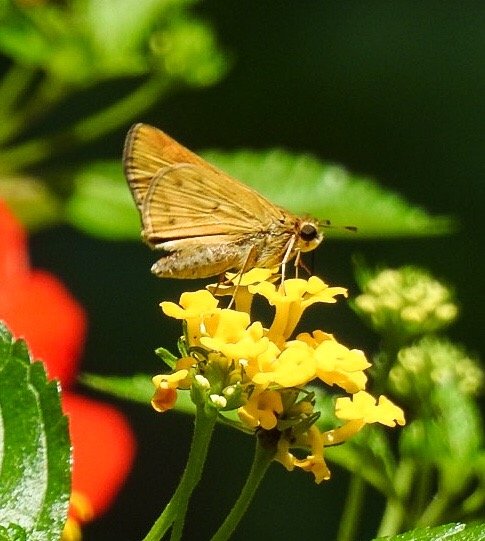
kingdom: Animalia
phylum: Arthropoda
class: Insecta
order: Lepidoptera
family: Hesperiidae
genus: Hylephila
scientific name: Hylephila phyleus
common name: Fiery Skipper
